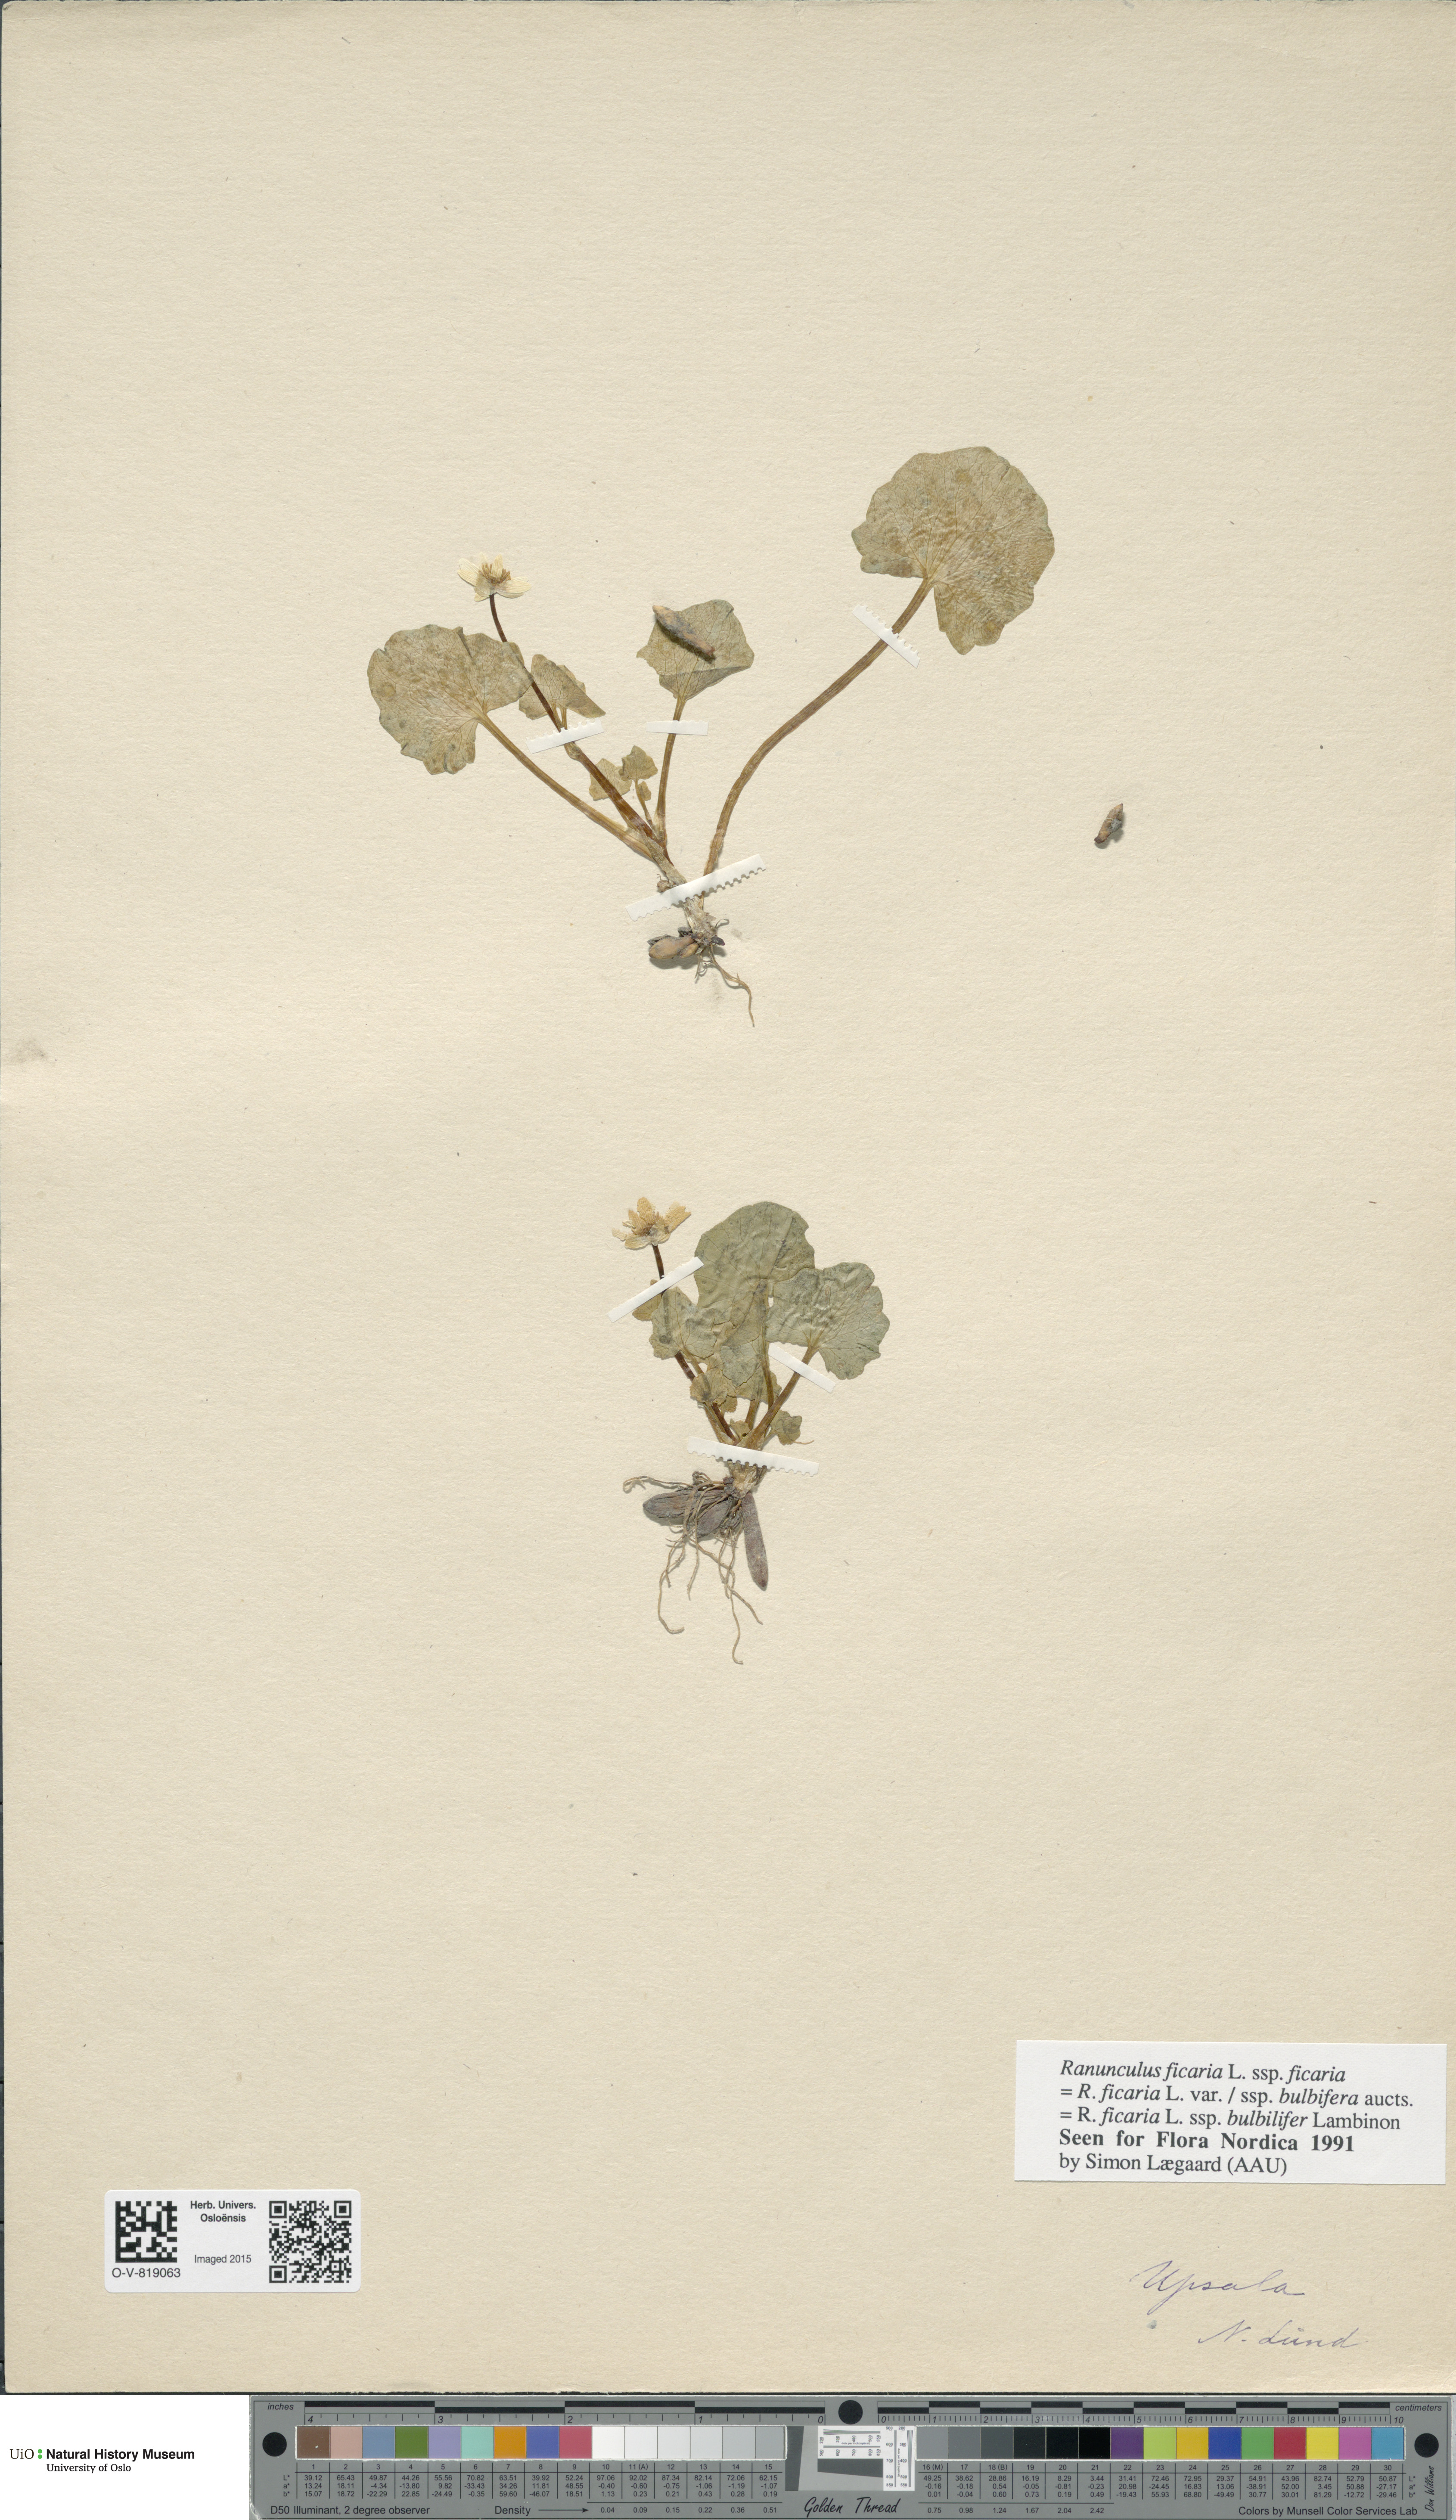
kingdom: Plantae
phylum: Tracheophyta
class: Magnoliopsida
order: Ranunculales
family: Ranunculaceae
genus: Ficaria
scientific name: Ficaria verna
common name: Lesser celandine
